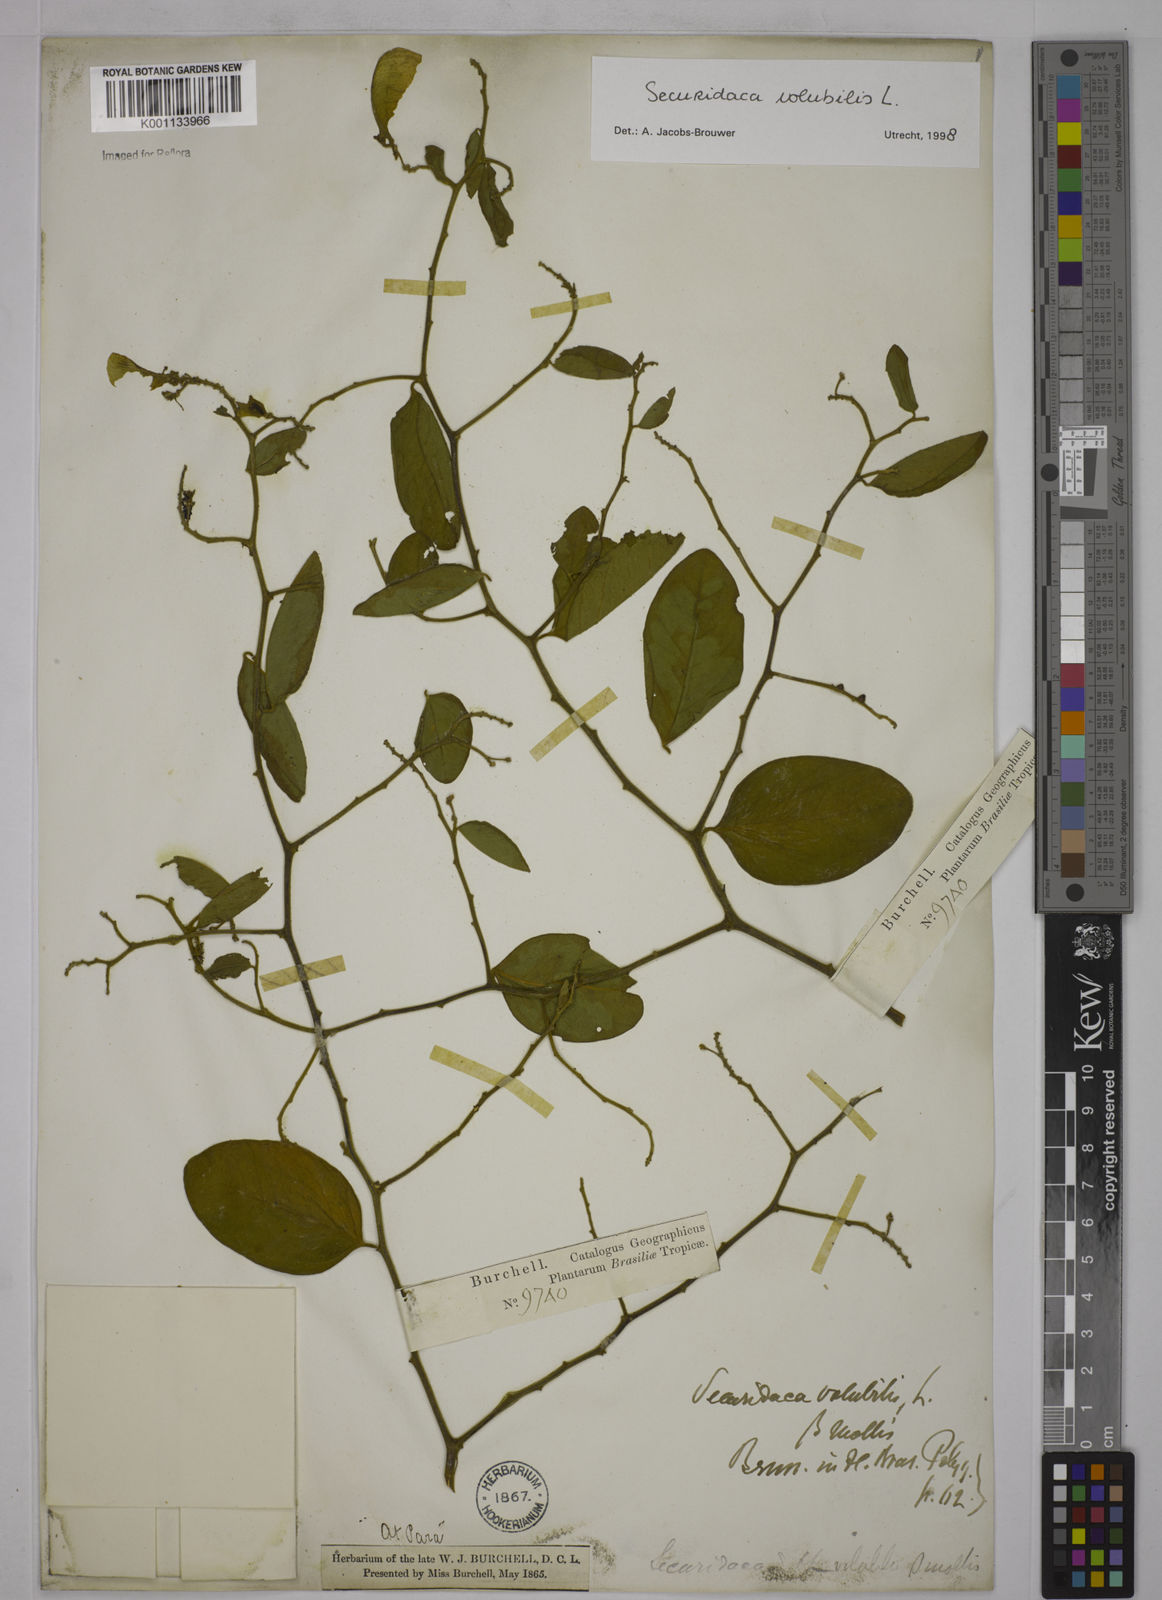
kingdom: Plantae
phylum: Tracheophyta
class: Magnoliopsida
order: Fabales
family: Polygalaceae
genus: Securidaca
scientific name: Securidaca diversifolia
